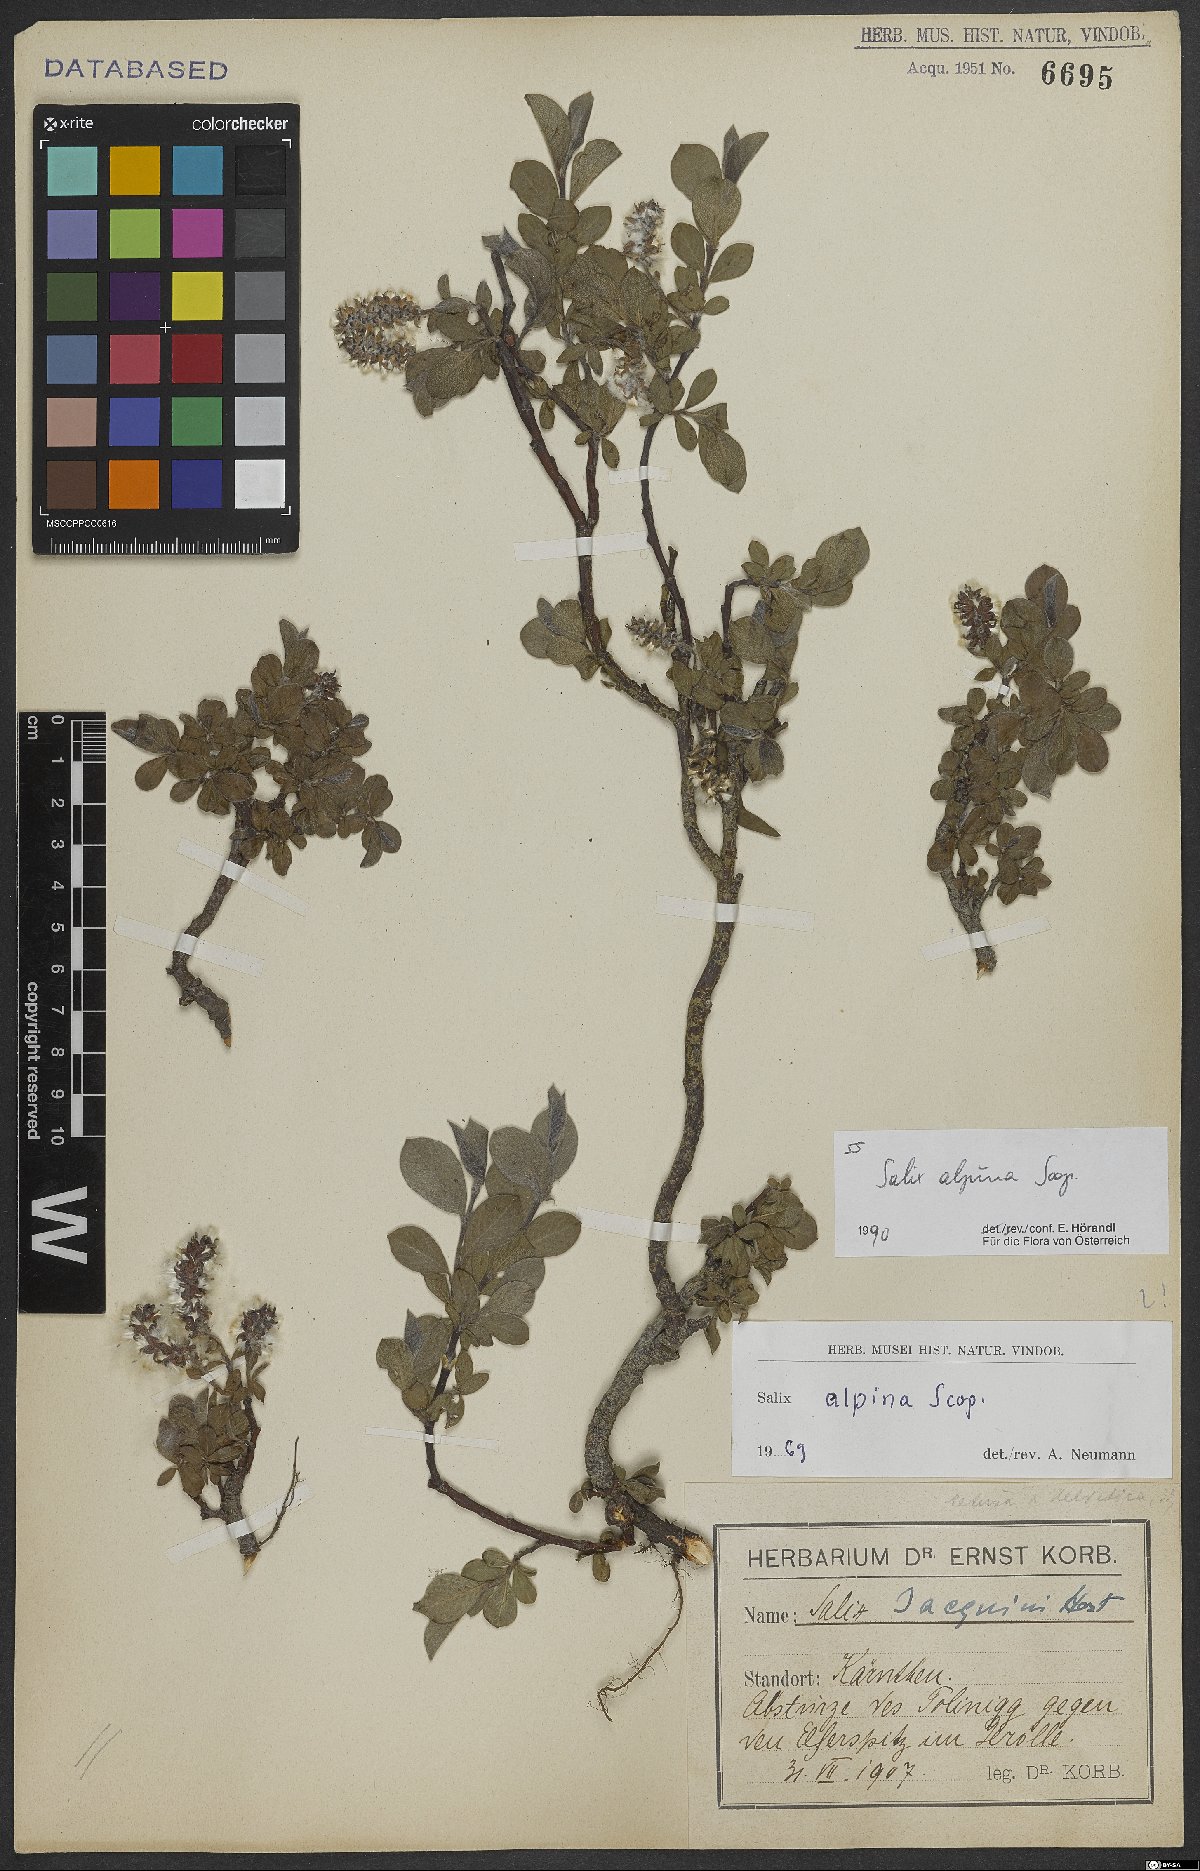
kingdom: Plantae
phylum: Tracheophyta
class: Magnoliopsida
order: Malpighiales
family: Salicaceae
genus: Salix
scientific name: Salix alpina
